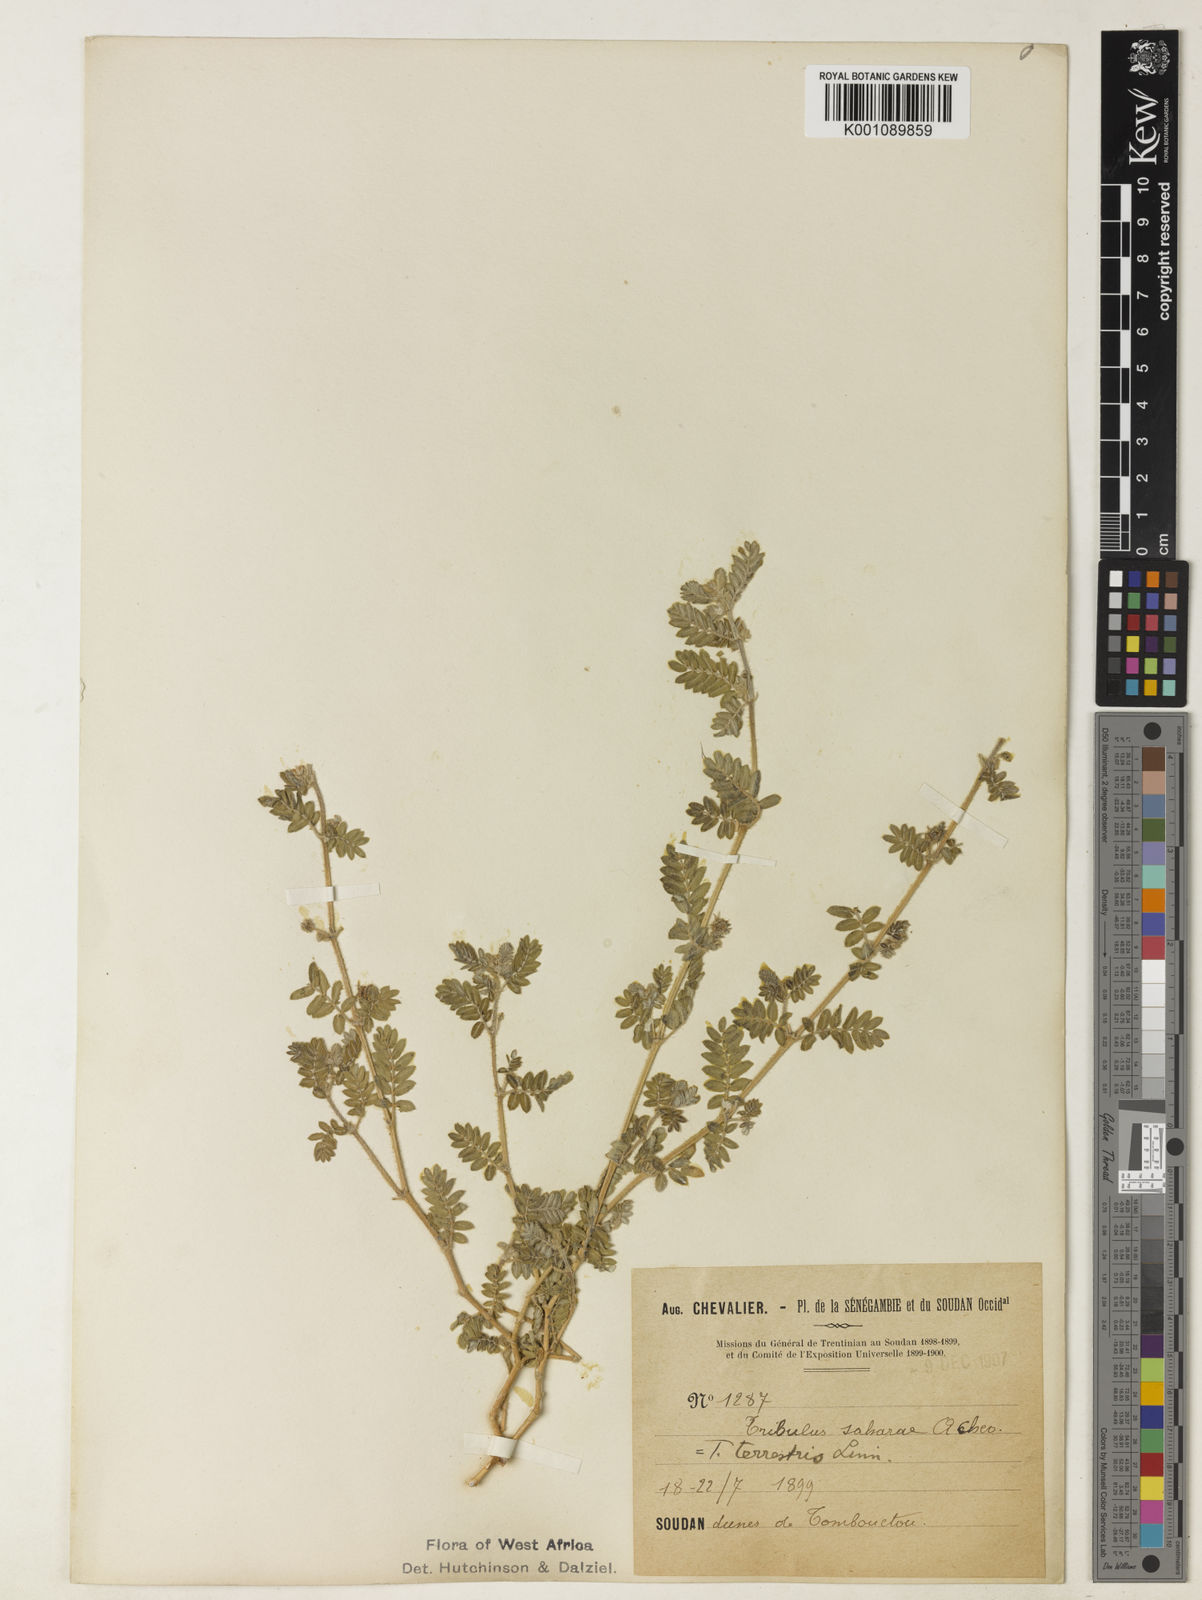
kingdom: Plantae
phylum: Tracheophyta
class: Magnoliopsida
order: Zygophyllales
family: Zygophyllaceae
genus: Tribulus
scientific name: Tribulus terrestris
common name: Puncturevine
